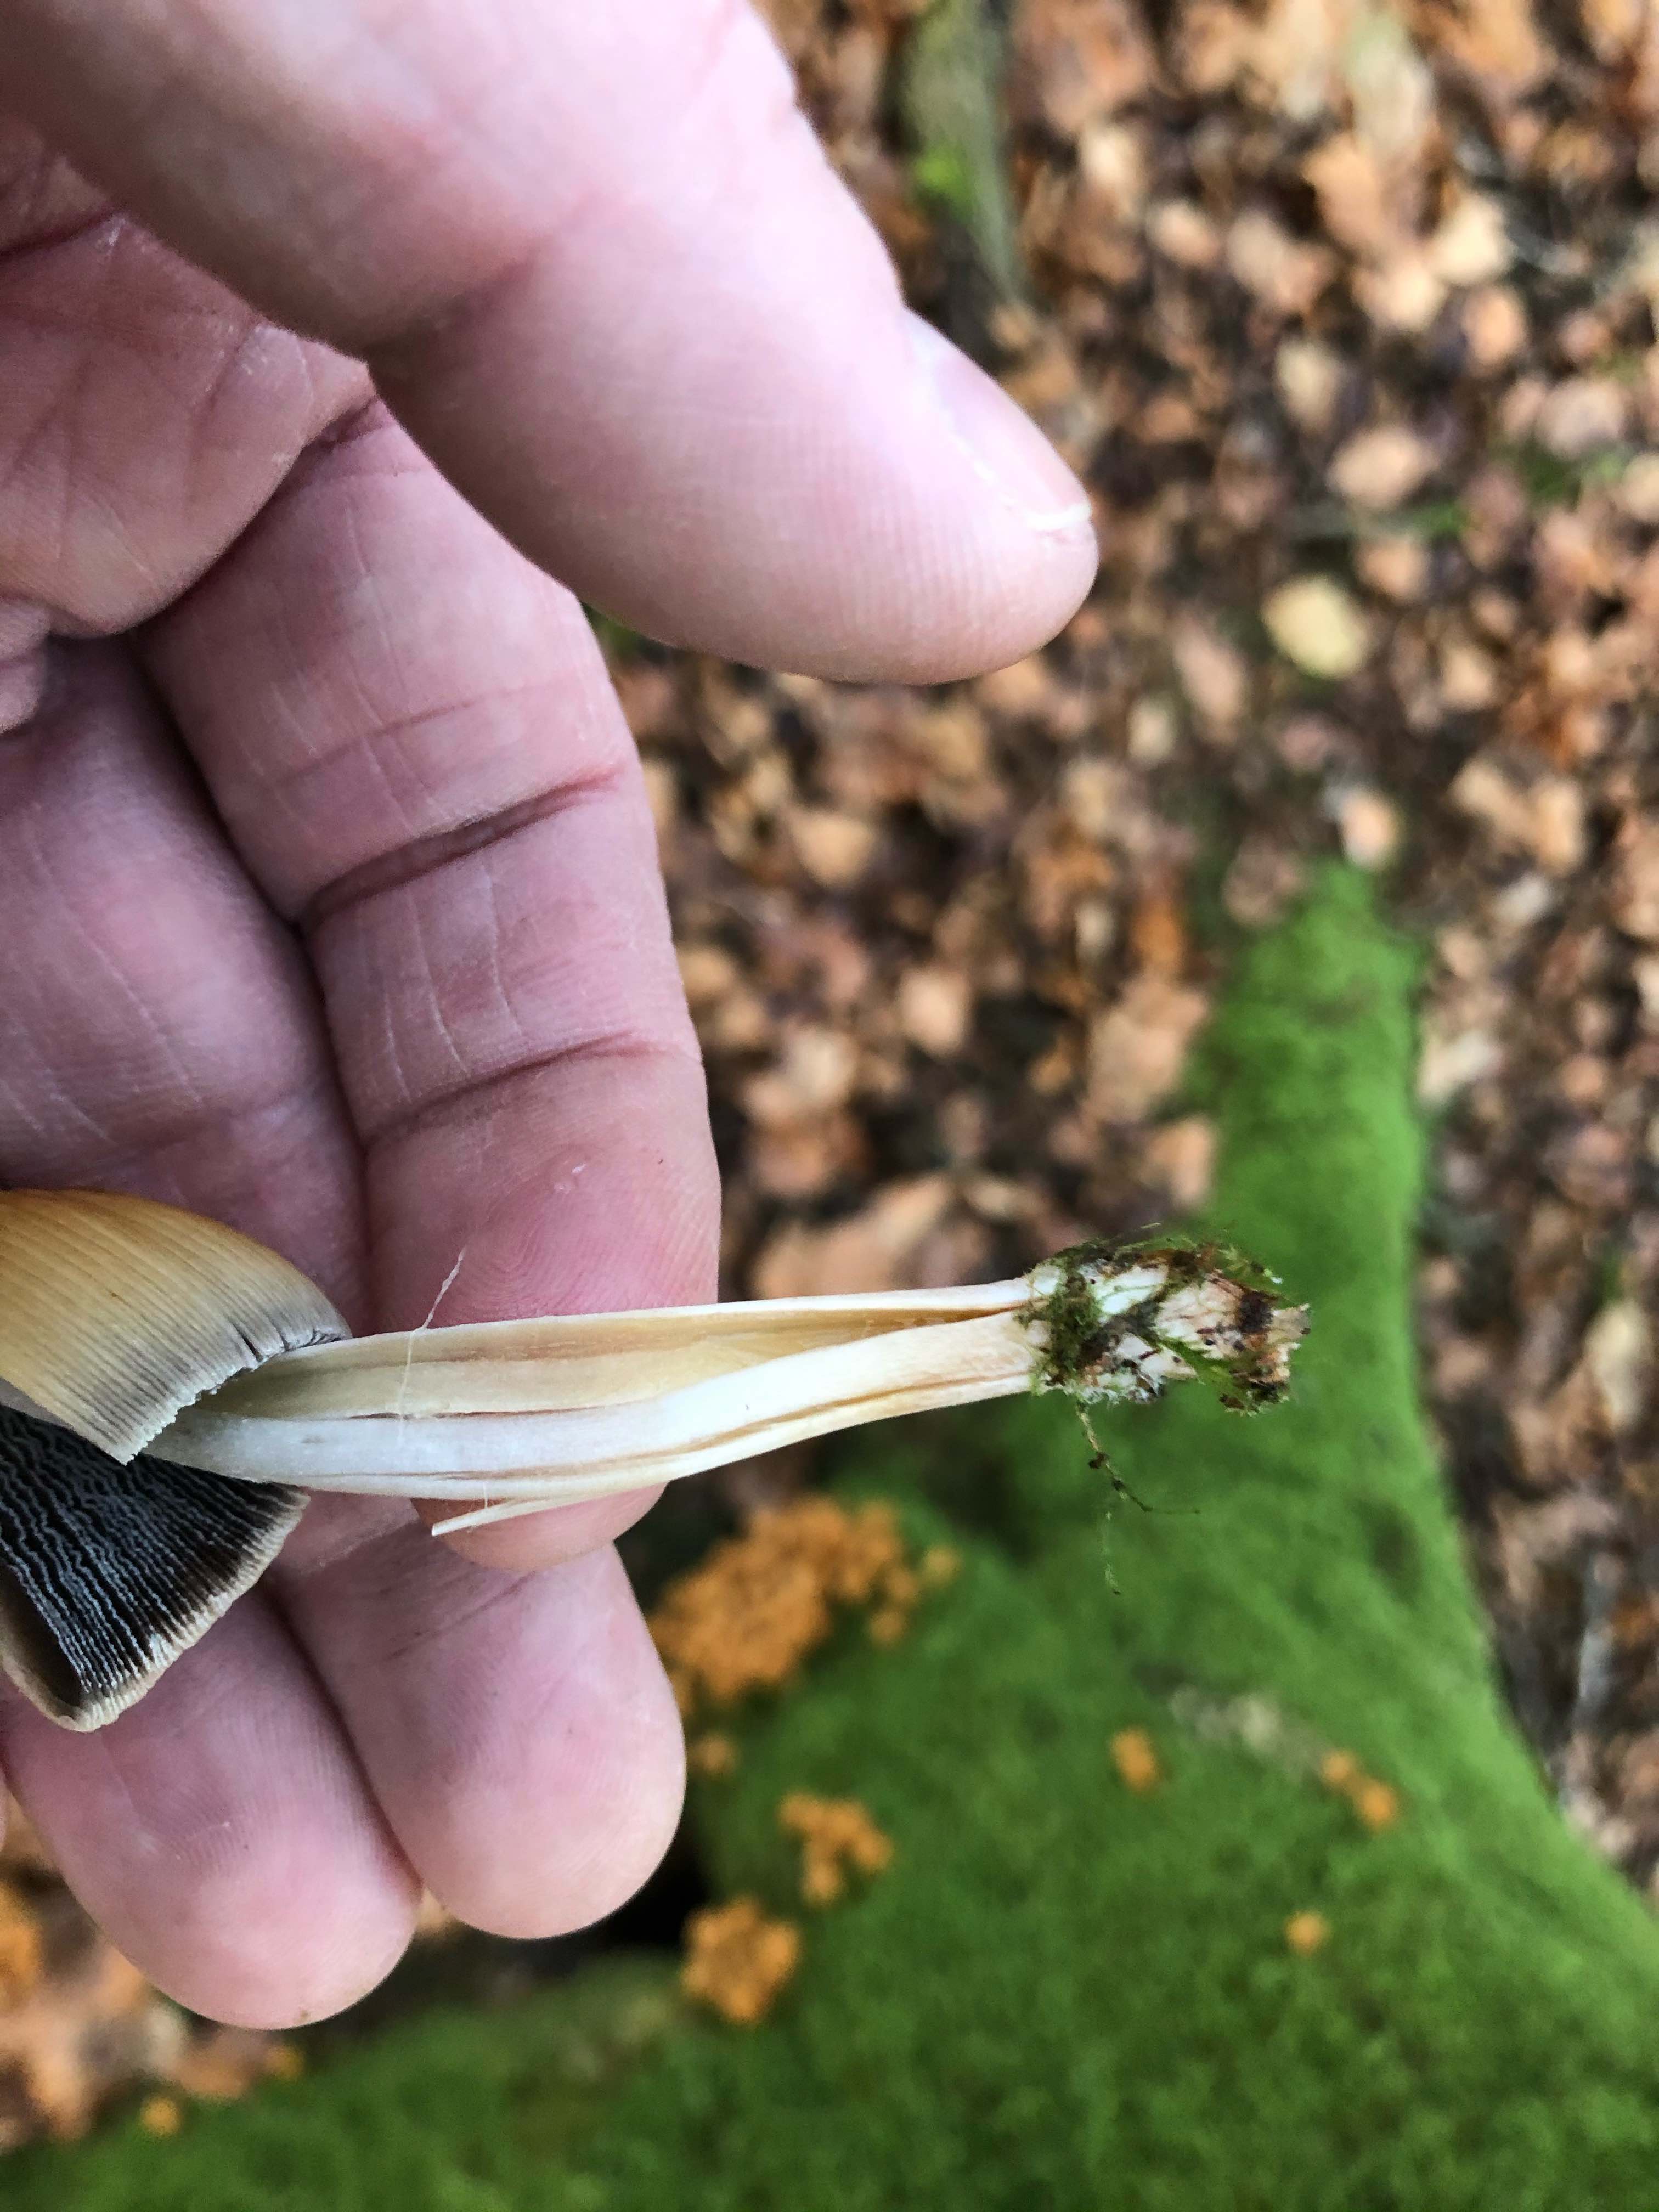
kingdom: Fungi
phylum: Basidiomycota
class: Agaricomycetes
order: Agaricales
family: Psathyrellaceae
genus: Coprinellus
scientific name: Coprinellus micaceus
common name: glimmer-blækhat
